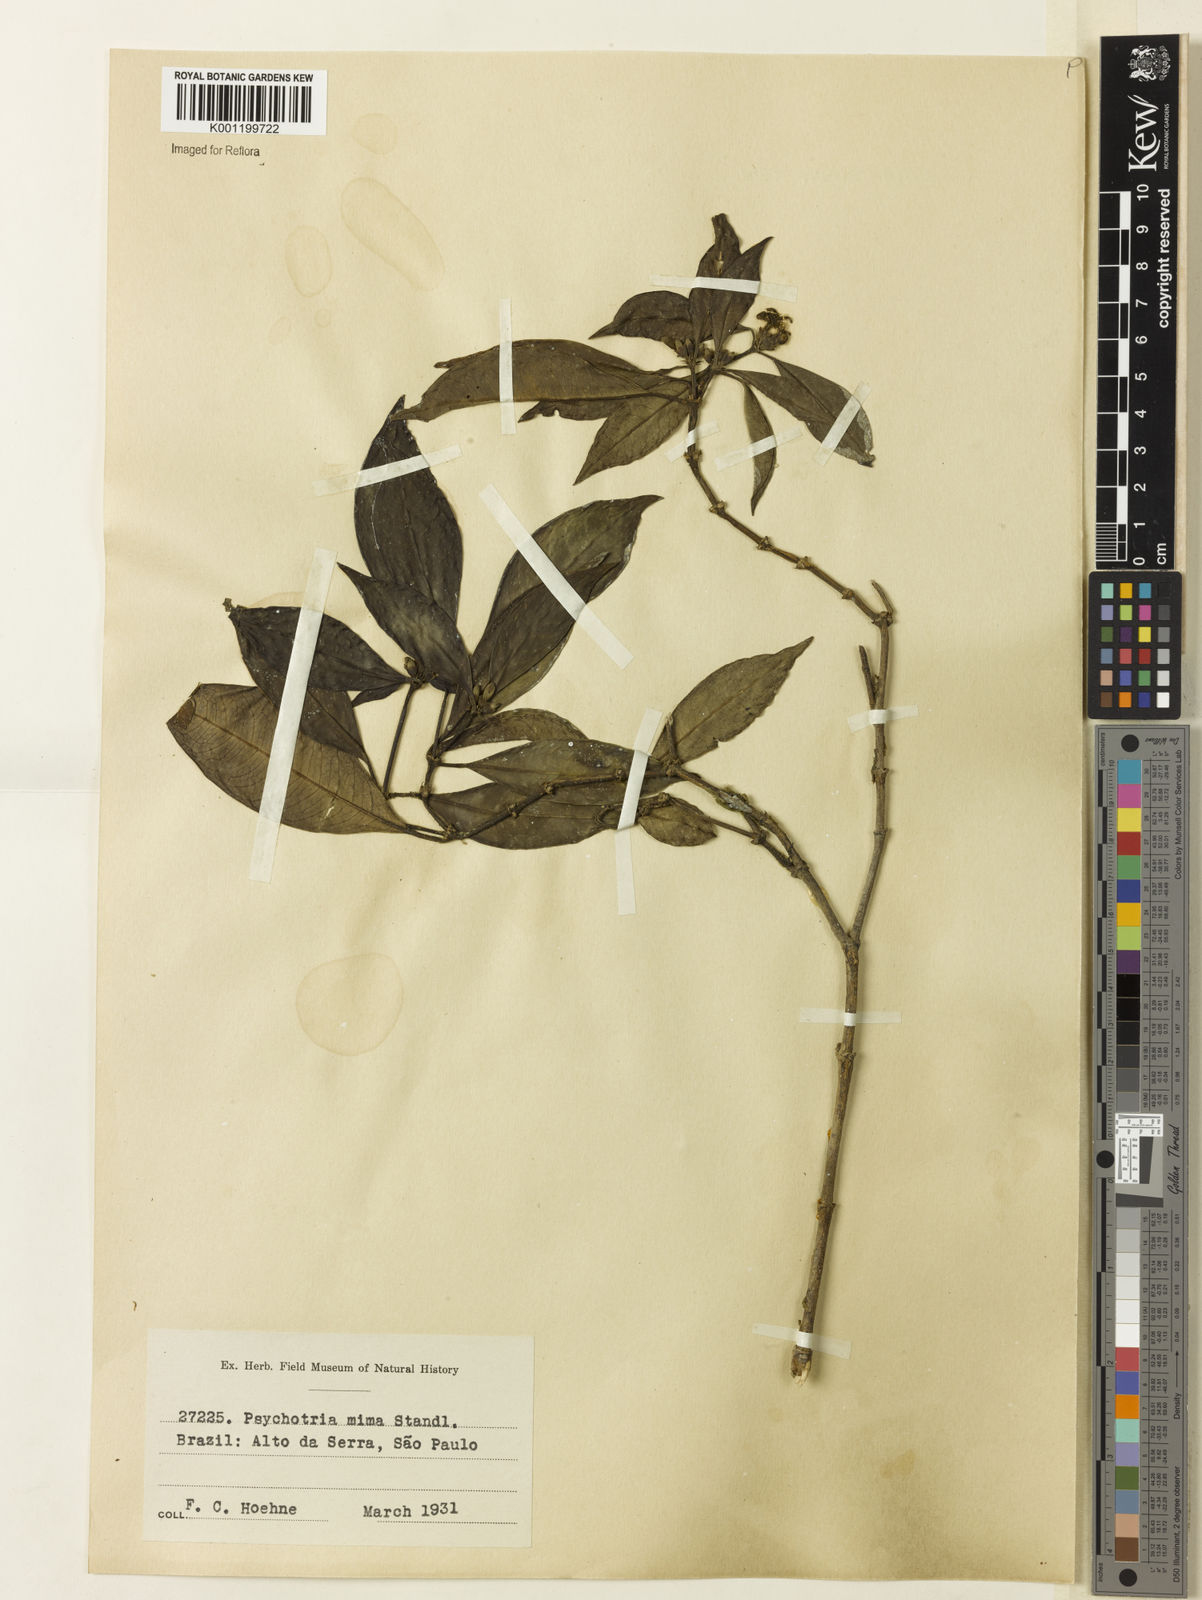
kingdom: Plantae
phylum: Tracheophyta
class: Magnoliopsida
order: Gentianales
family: Rubiaceae
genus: Psychotria
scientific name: Psychotria mima
